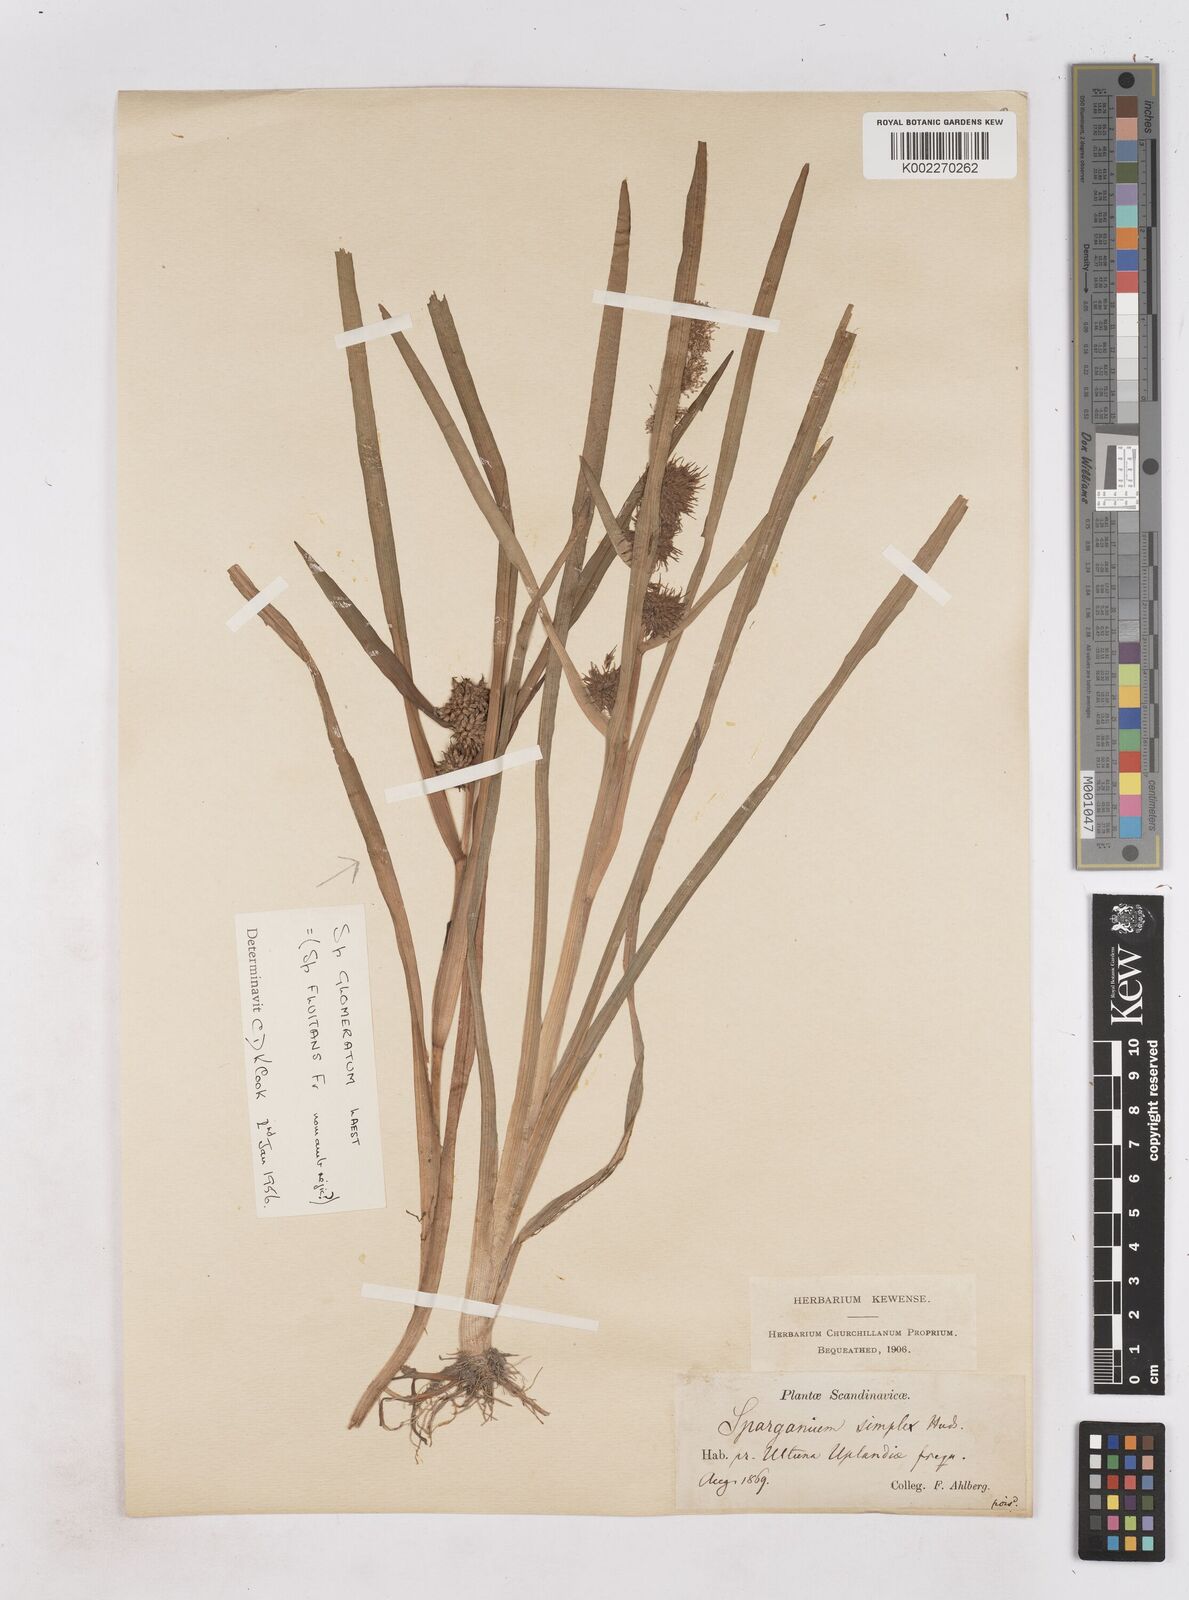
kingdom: Plantae
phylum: Tracheophyta
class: Liliopsida
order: Poales
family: Typhaceae
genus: Sparganium
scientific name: Sparganium emersum
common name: Unbranched bur-reed
